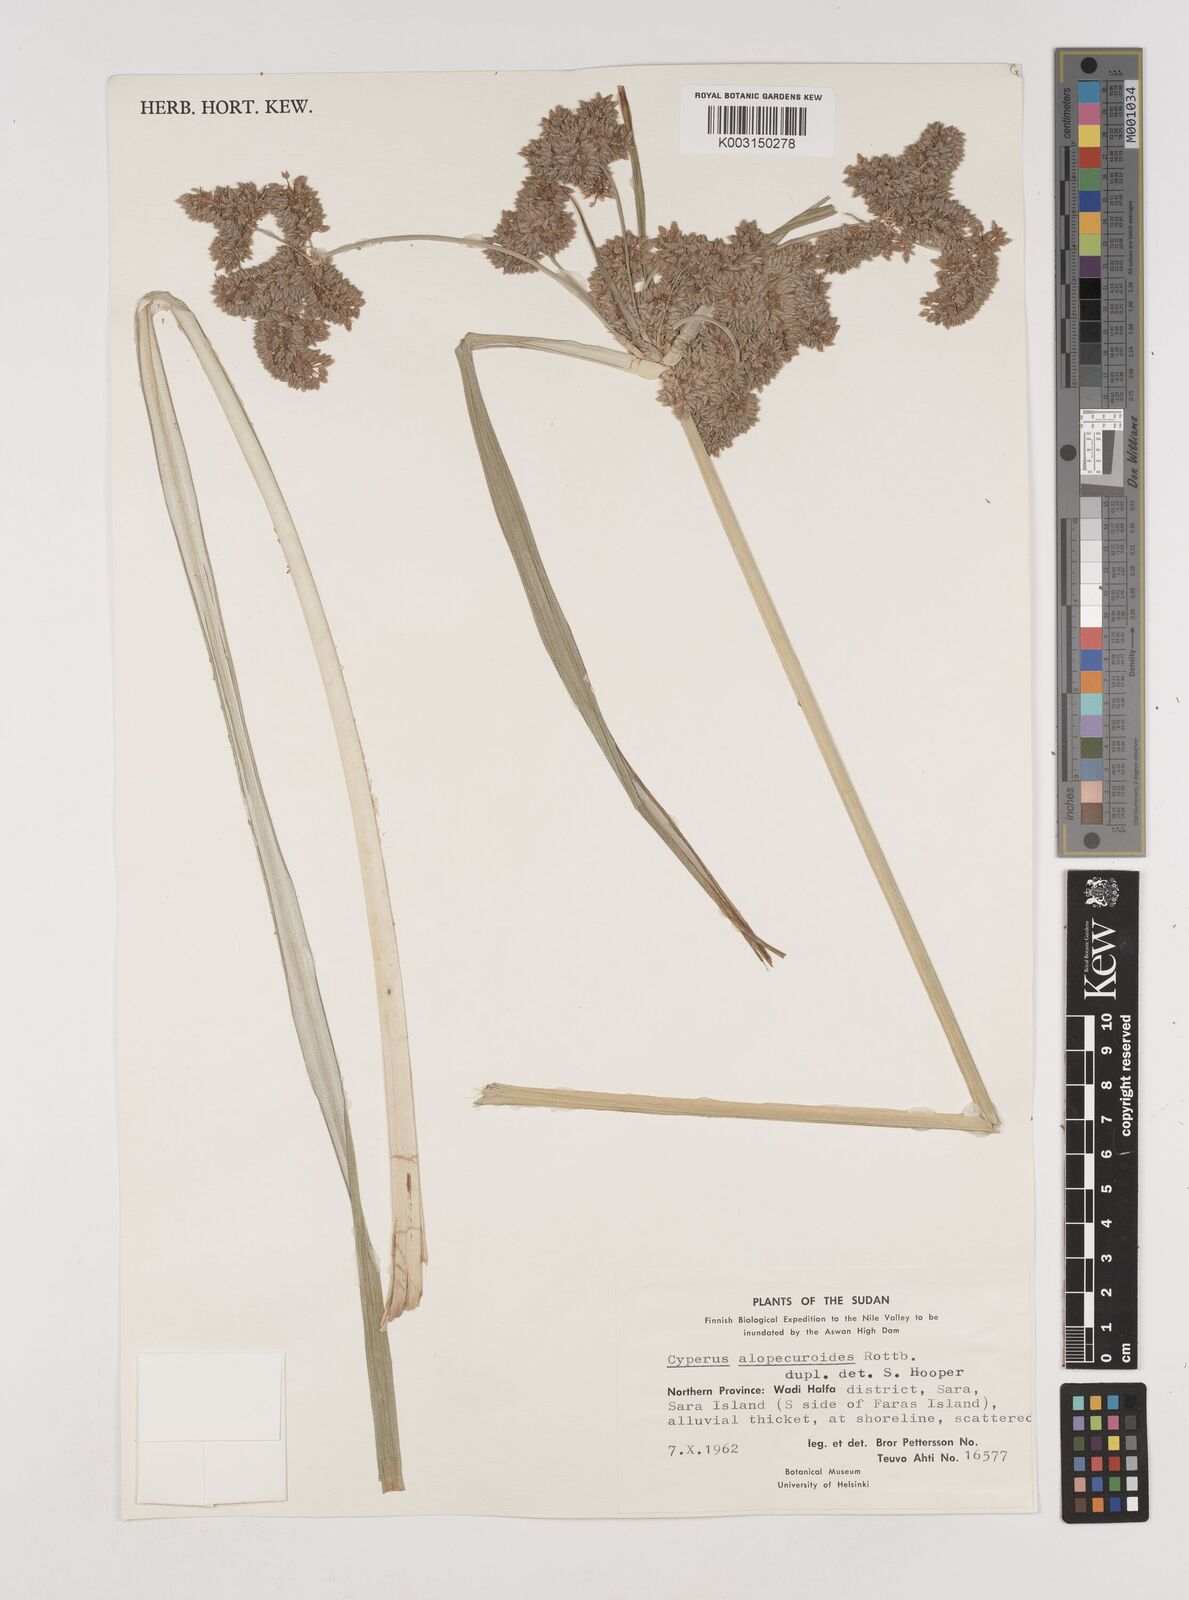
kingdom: Plantae
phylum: Tracheophyta
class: Liliopsida
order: Poales
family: Cyperaceae
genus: Cyperus
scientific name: Cyperus alopecuroides
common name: Foxtail flatsedge
